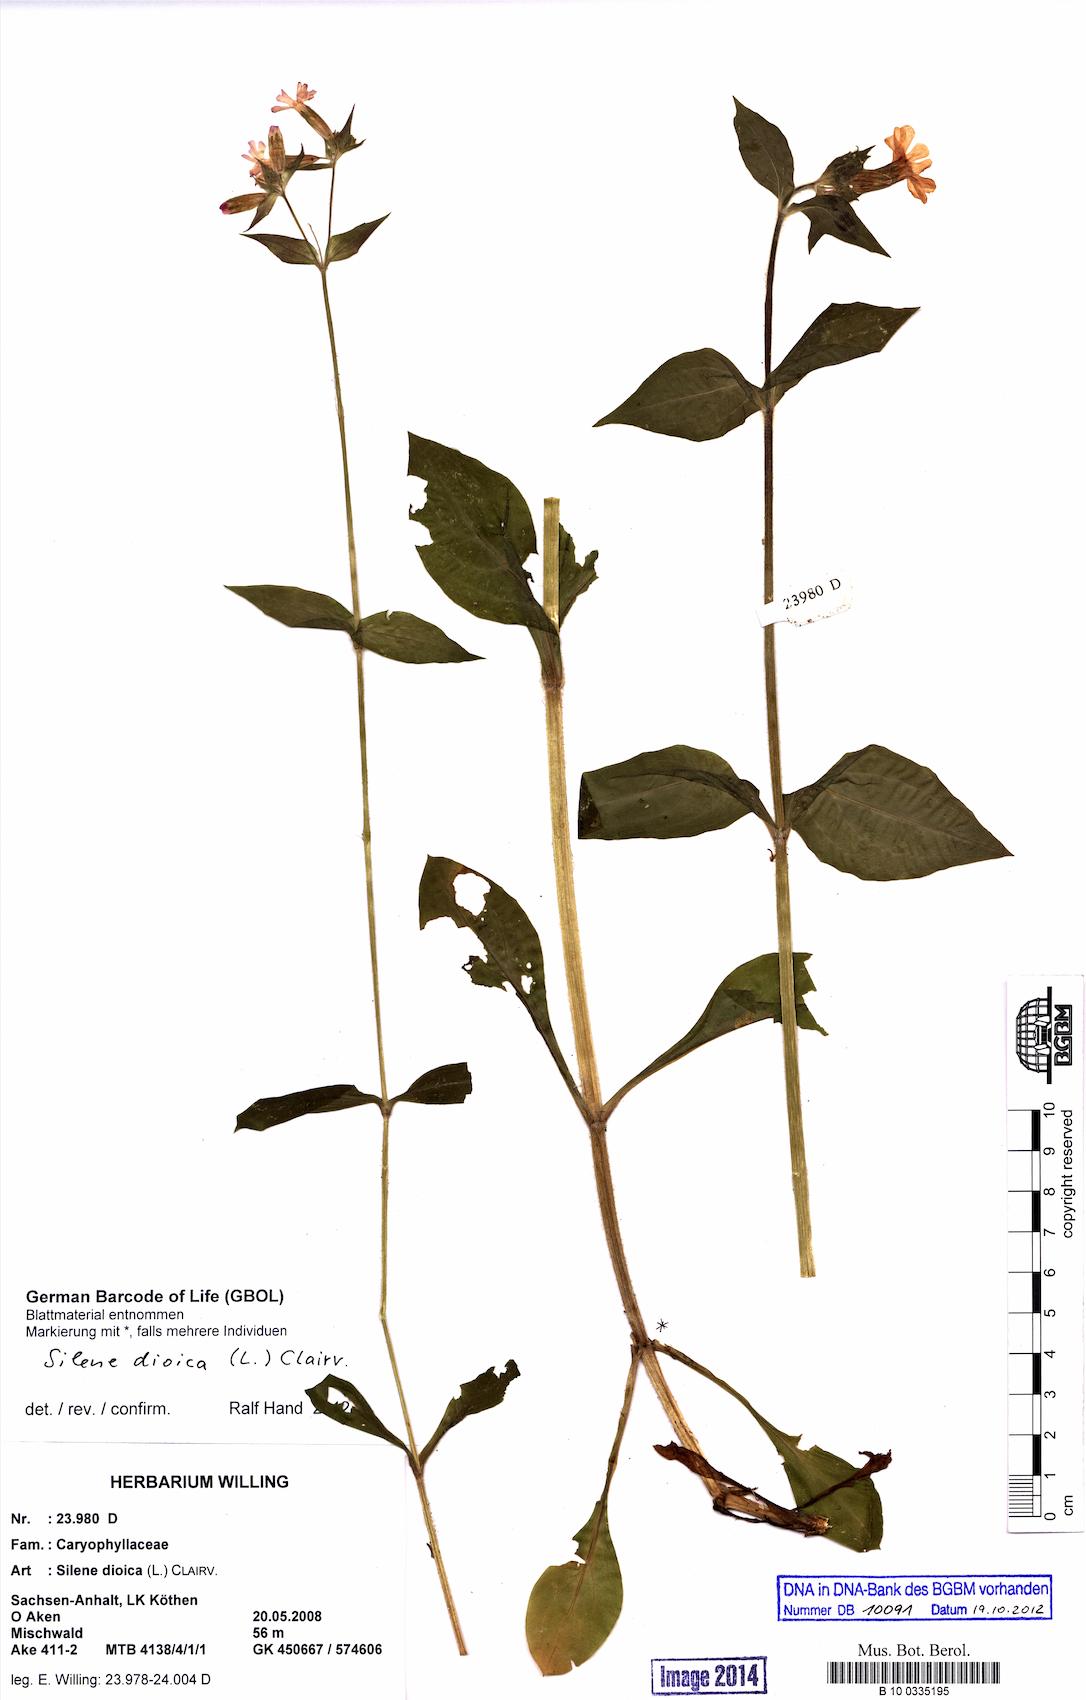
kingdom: Plantae
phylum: Tracheophyta
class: Magnoliopsida
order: Caryophyllales
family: Caryophyllaceae
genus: Silene
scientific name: Silene dioica
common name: Red campion
